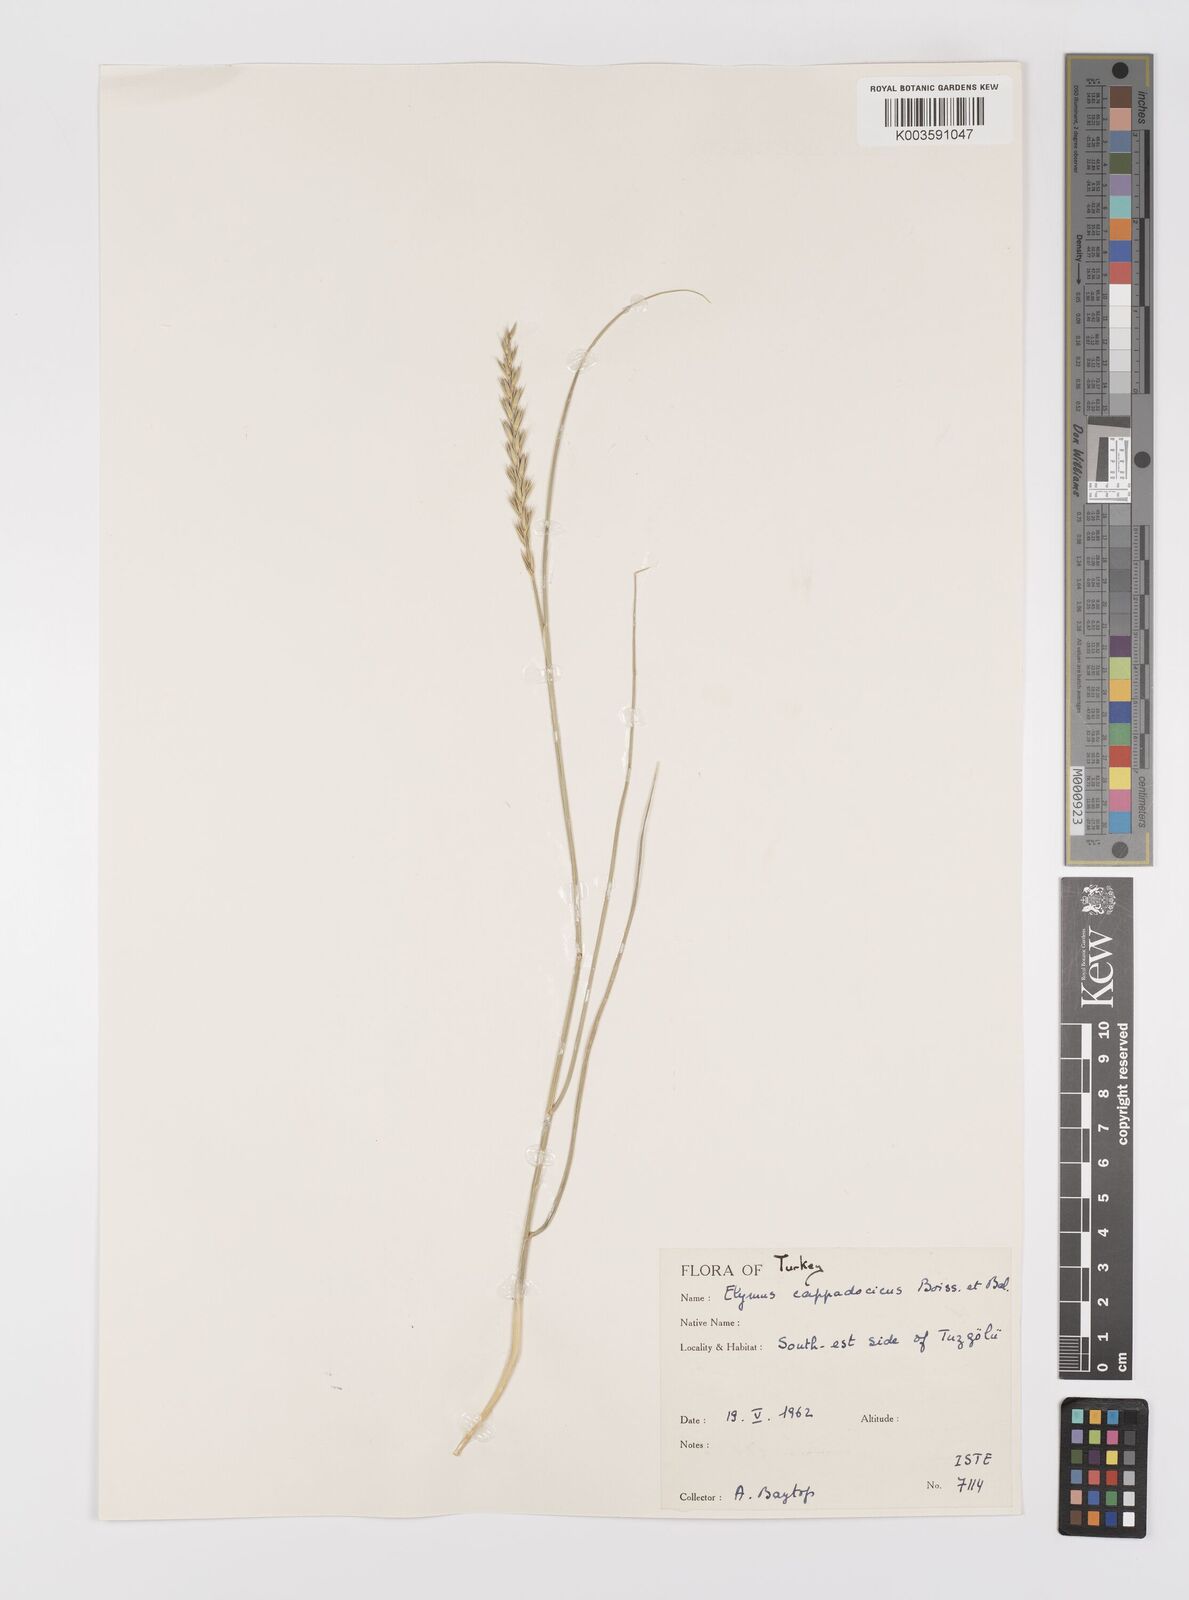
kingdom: Plantae
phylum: Tracheophyta
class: Liliopsida
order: Poales
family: Poaceae
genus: Leymus
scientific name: Leymus cappadocicus
